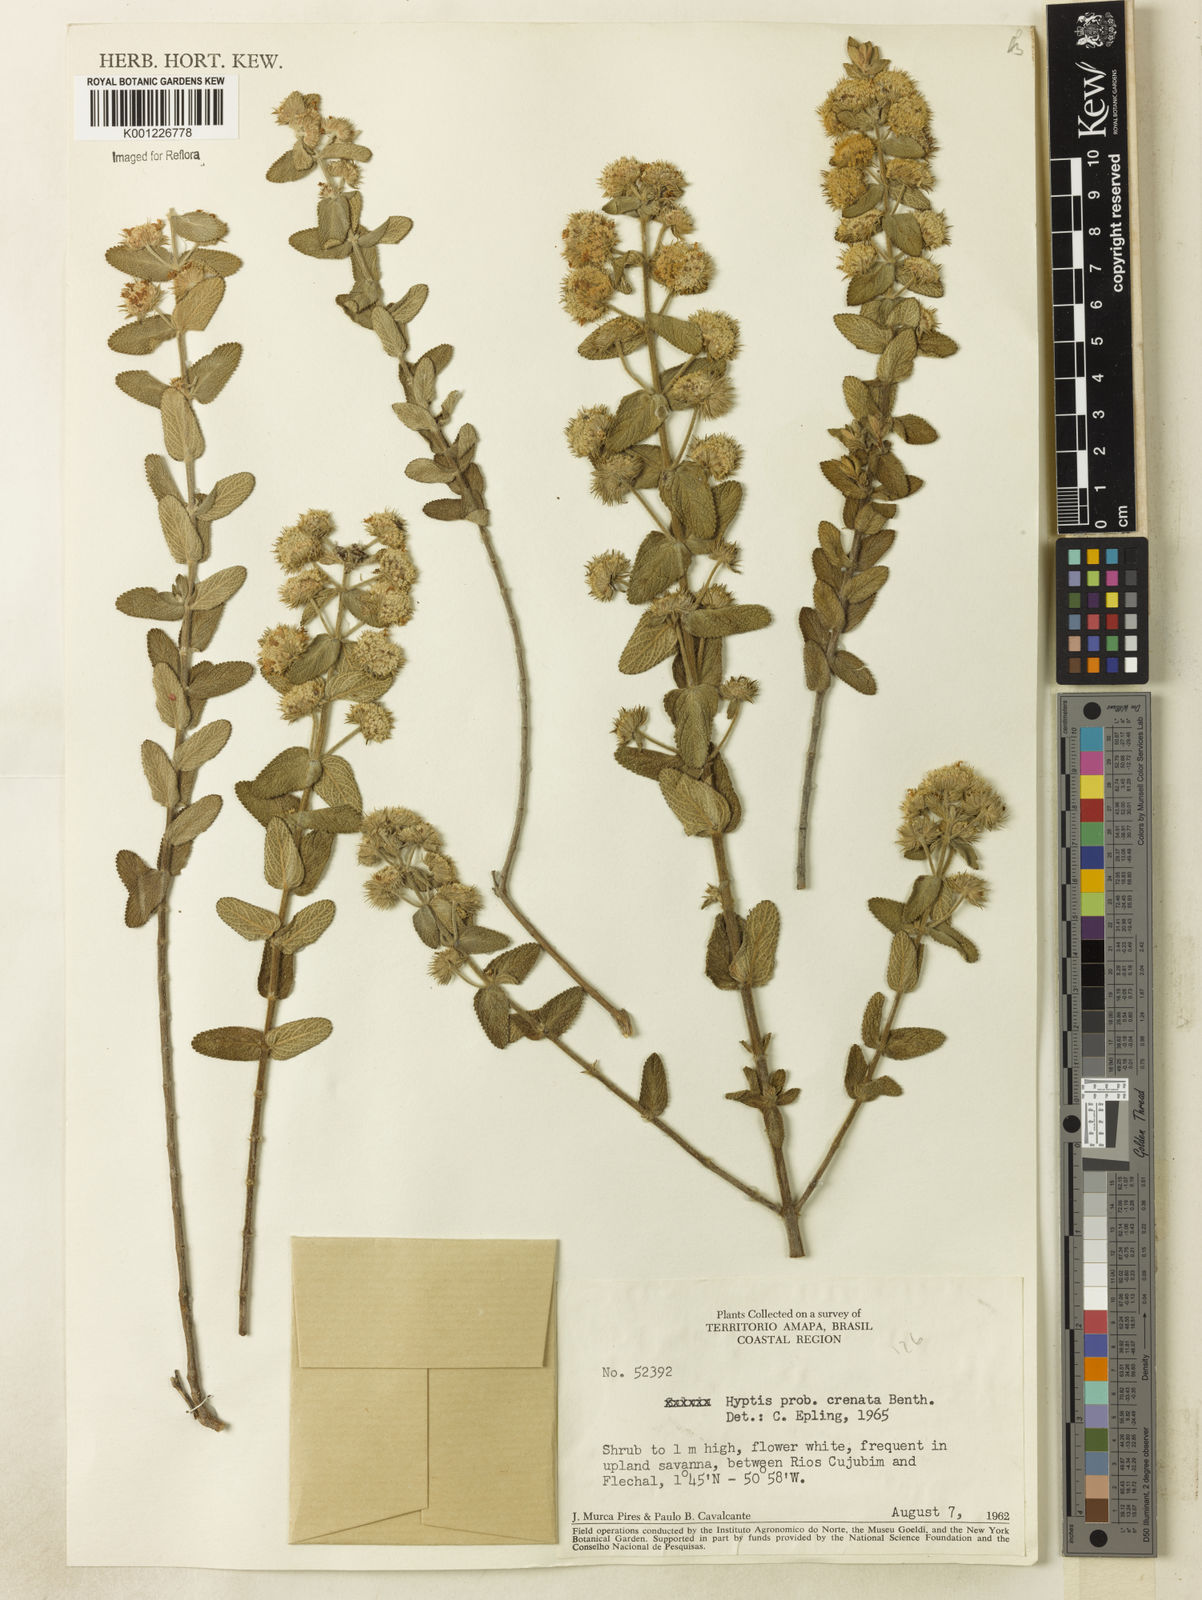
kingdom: Plantae
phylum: Tracheophyta
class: Magnoliopsida
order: Lamiales
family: Lamiaceae
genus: Hyptis
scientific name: Hyptis crenata
